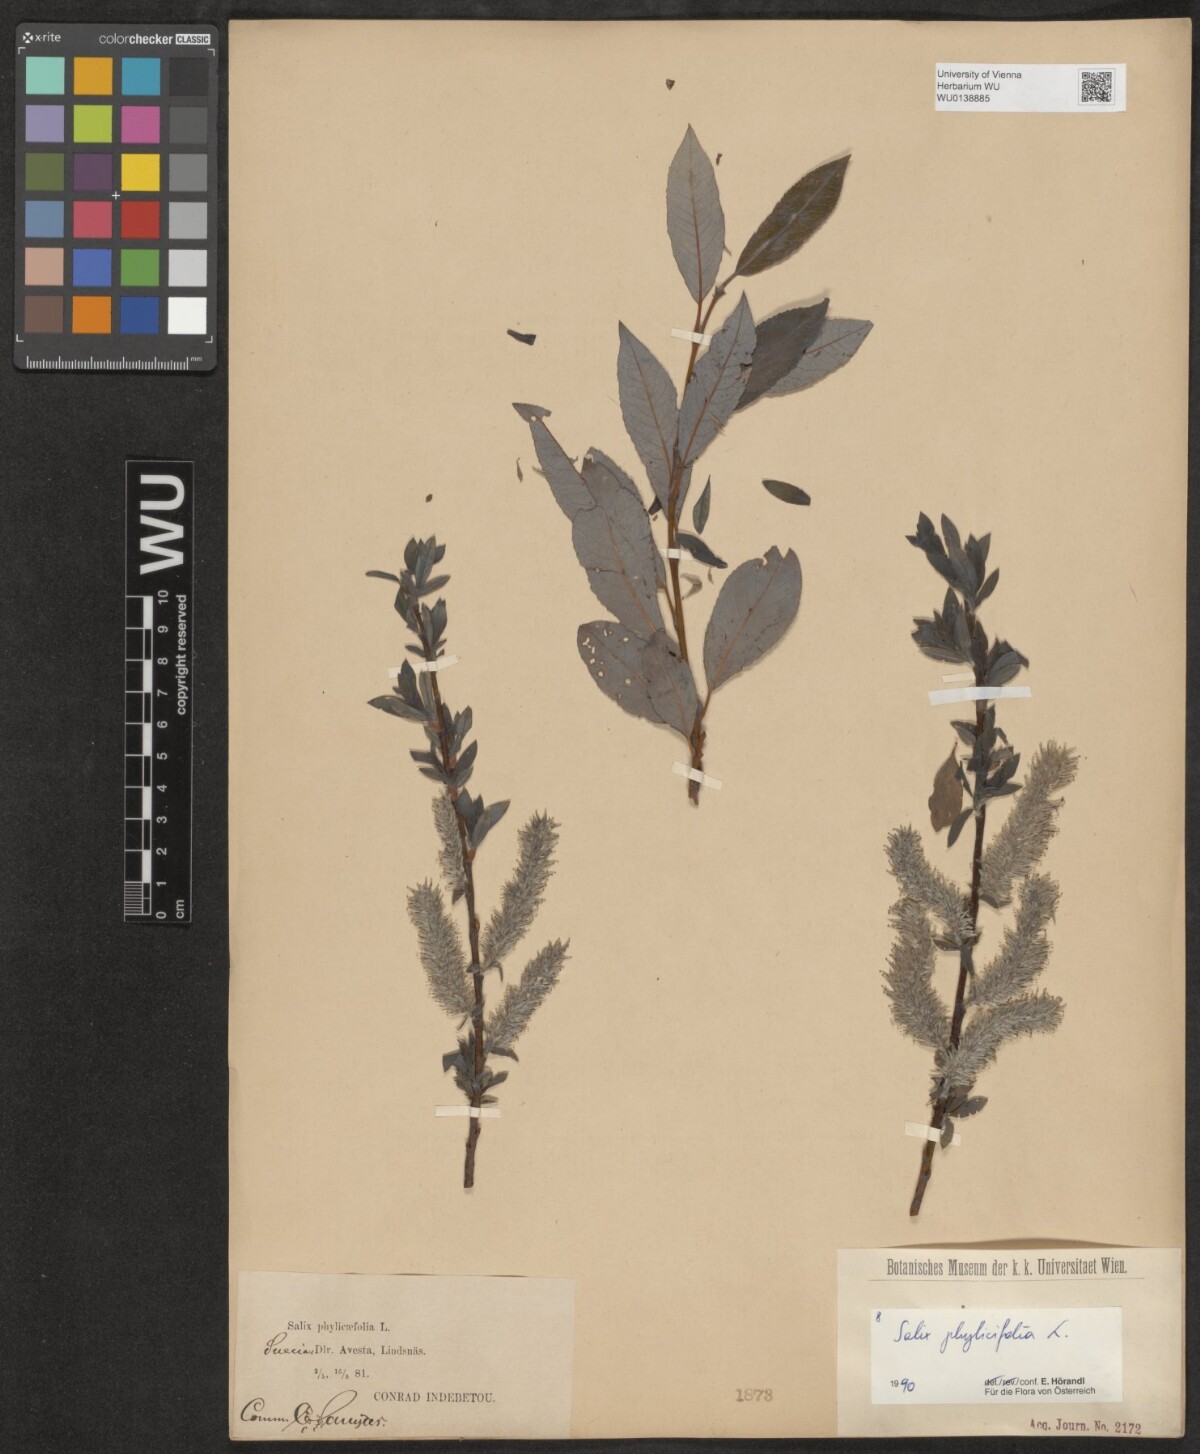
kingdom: Plantae
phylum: Tracheophyta
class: Magnoliopsida
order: Malpighiales
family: Salicaceae
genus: Salix
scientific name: Salix phylicifolia
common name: Tea-leaved willow
